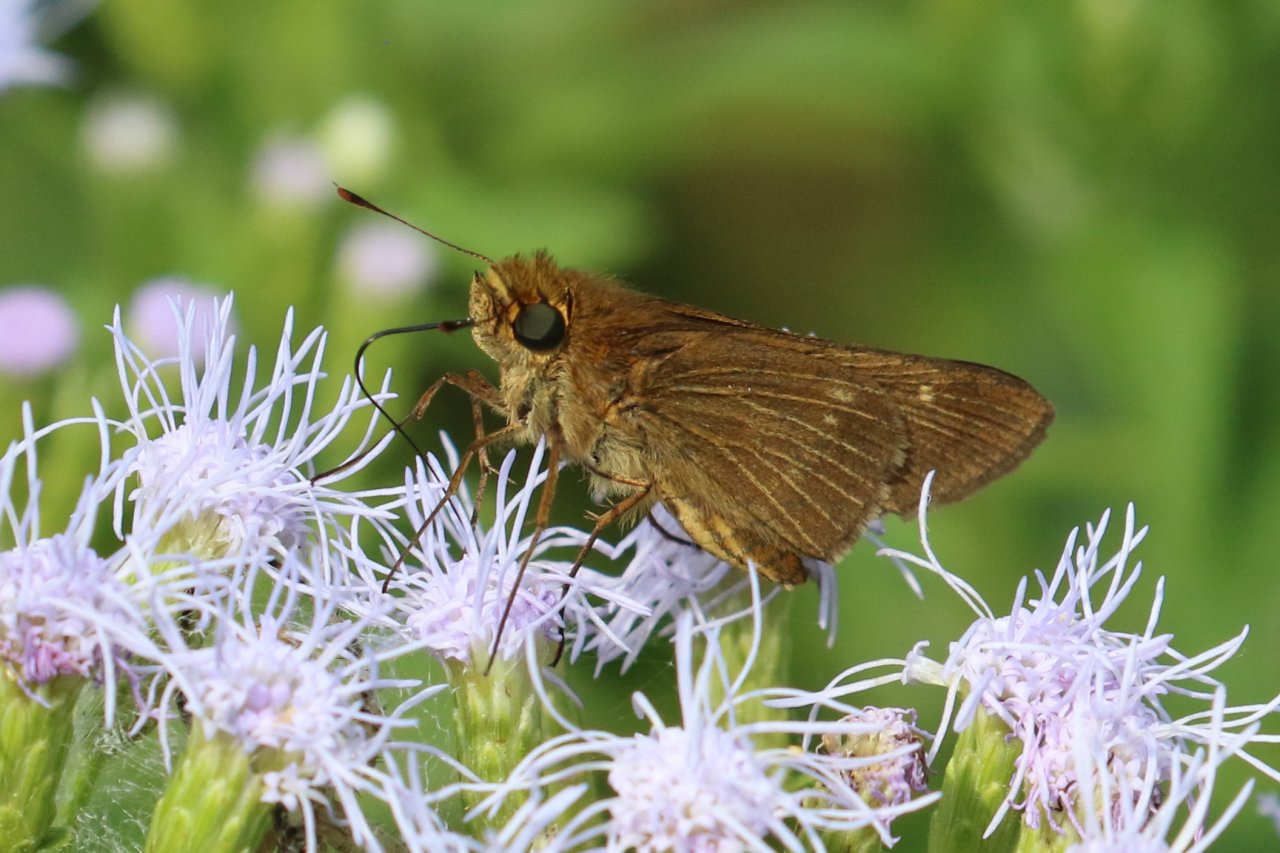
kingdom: Animalia
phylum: Arthropoda
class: Insecta
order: Lepidoptera
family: Hesperiidae
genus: Panoquina
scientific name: Panoquina ocola
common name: Ocola Skipper
